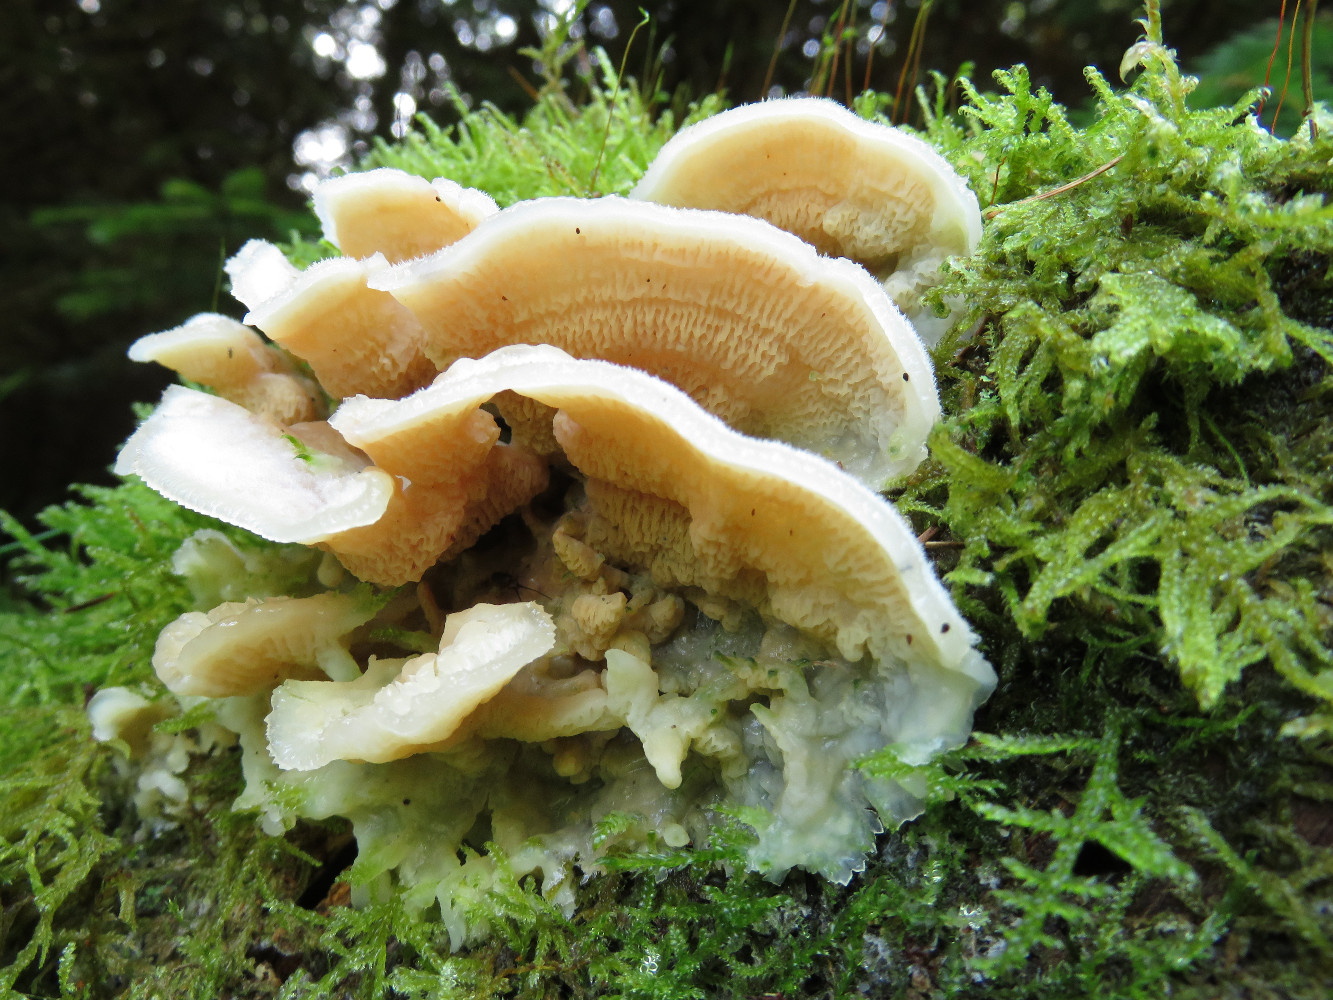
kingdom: Fungi
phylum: Basidiomycota
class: Agaricomycetes
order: Polyporales
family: Meruliaceae
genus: Phlebia
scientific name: Phlebia tremellosa
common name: bævrende åresvamp
